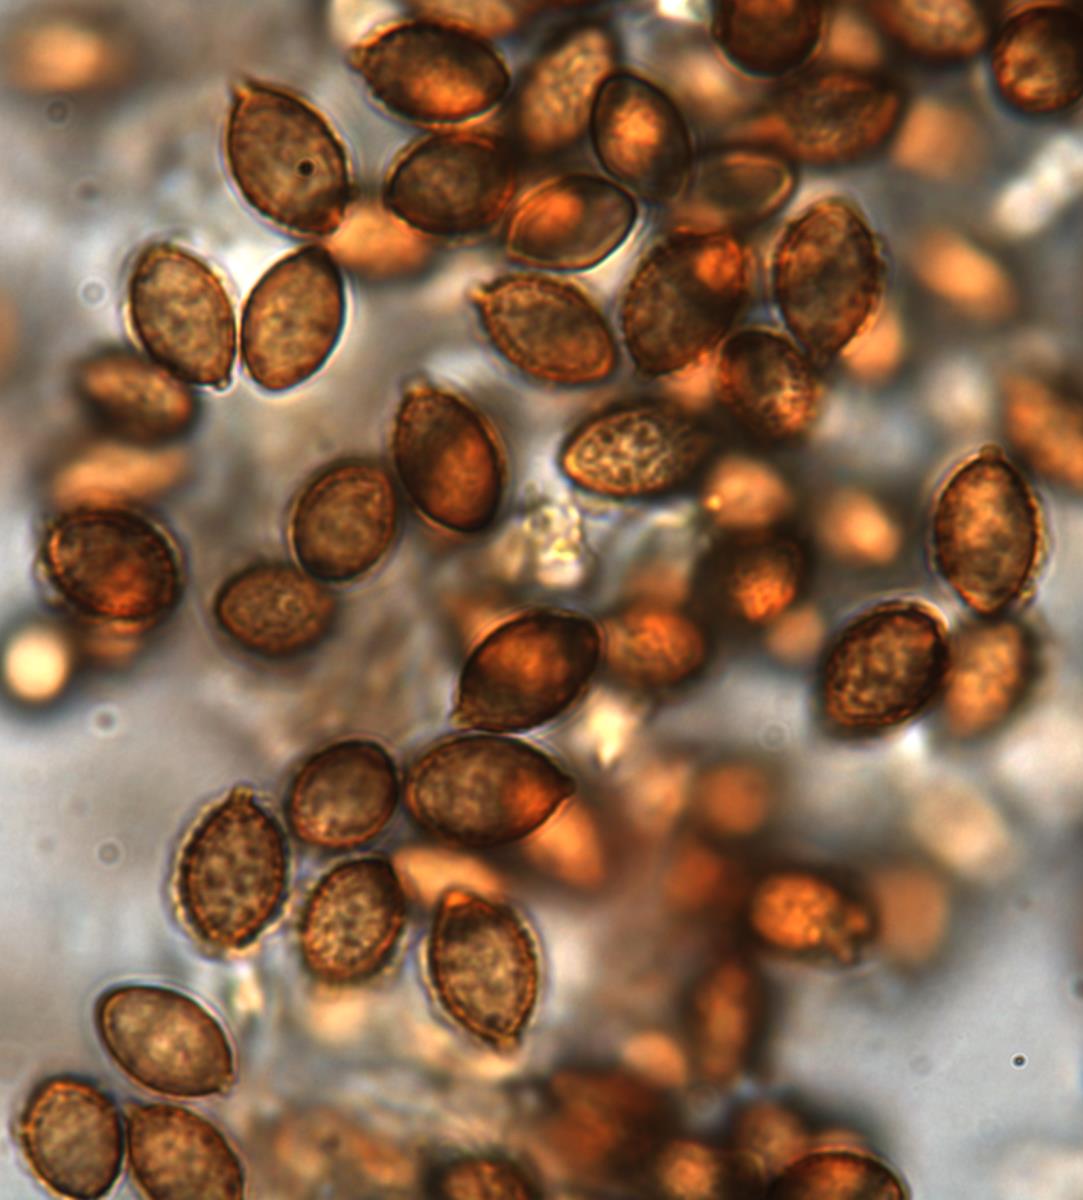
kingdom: Fungi
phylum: Basidiomycota
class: Agaricomycetes
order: Agaricales
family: Cortinariaceae
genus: Cortinarius
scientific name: Cortinarius subviolaceus
